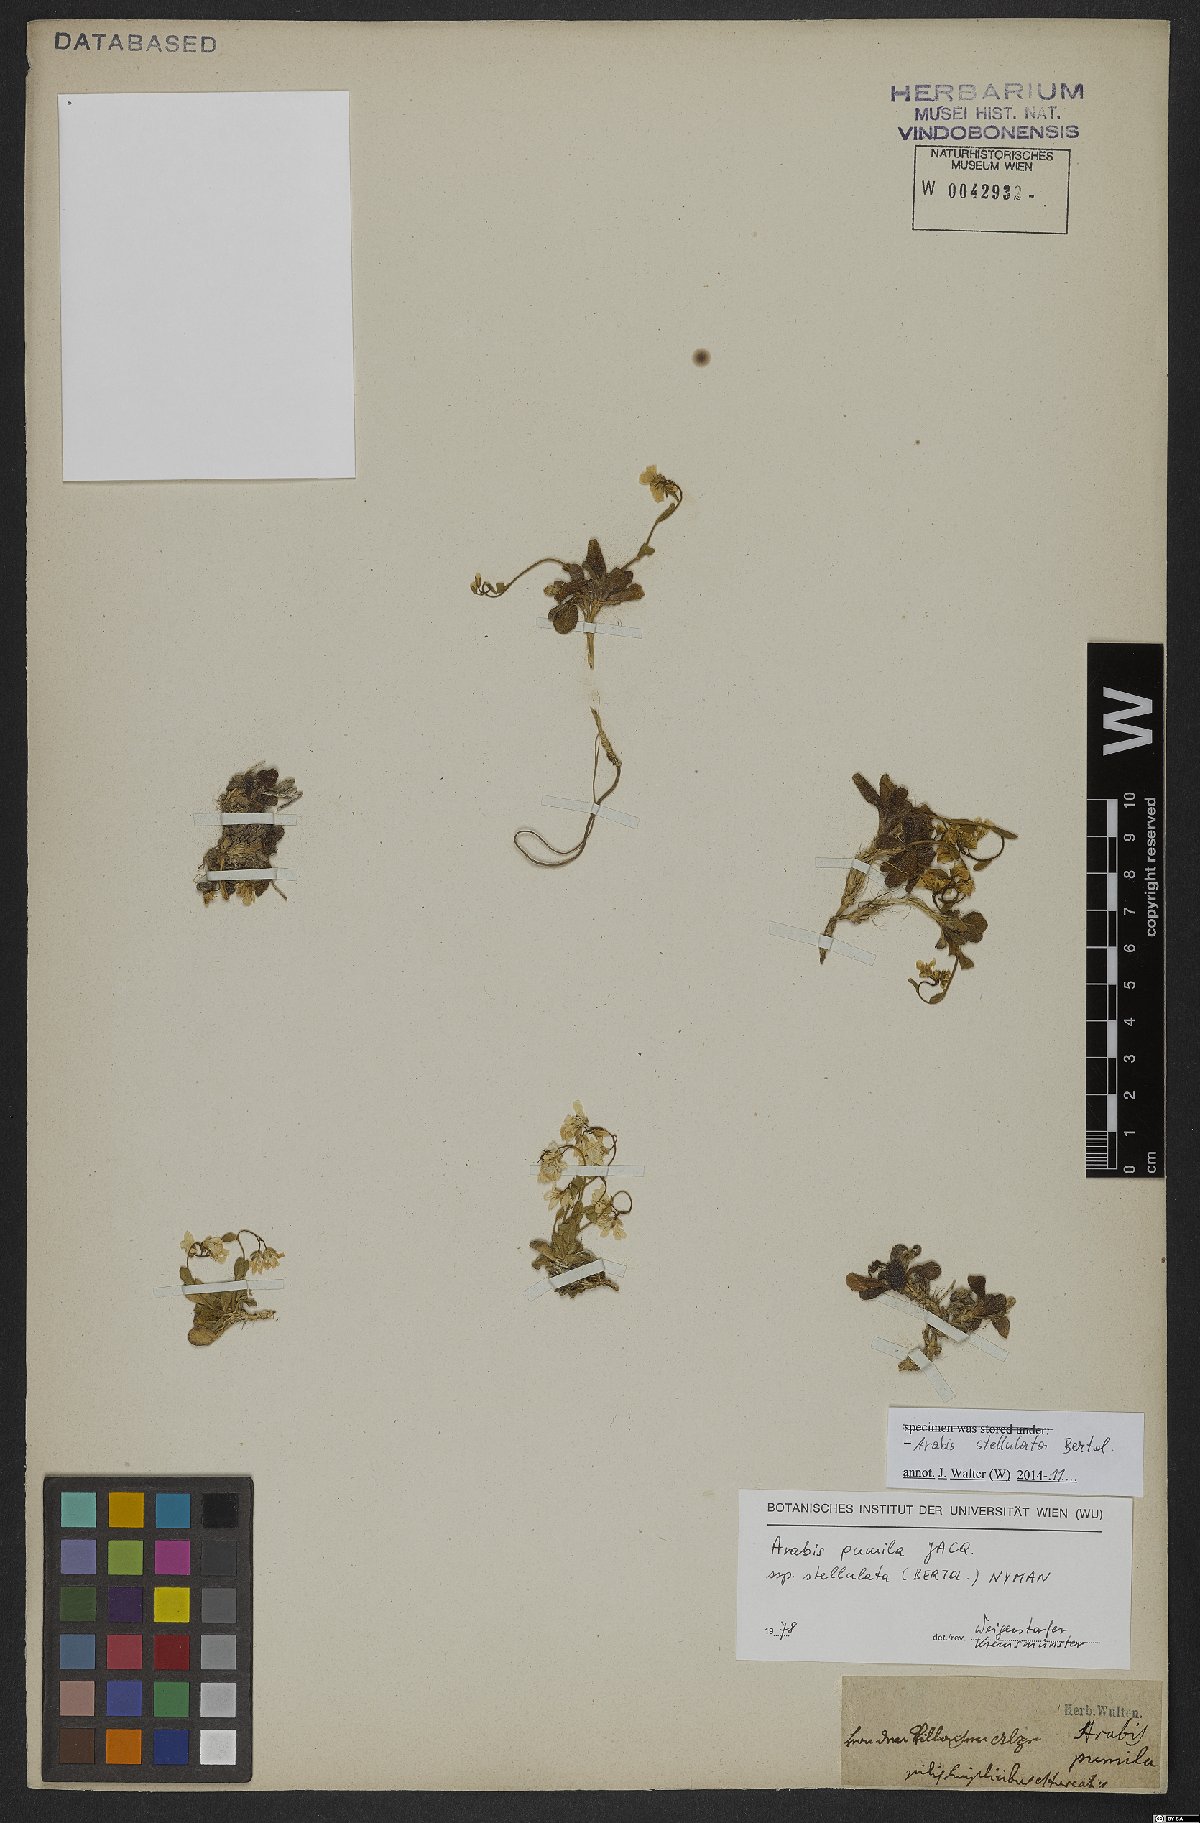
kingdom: Plantae
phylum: Tracheophyta
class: Magnoliopsida
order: Brassicales
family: Brassicaceae
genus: Arabis
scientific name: Arabis stellulata
